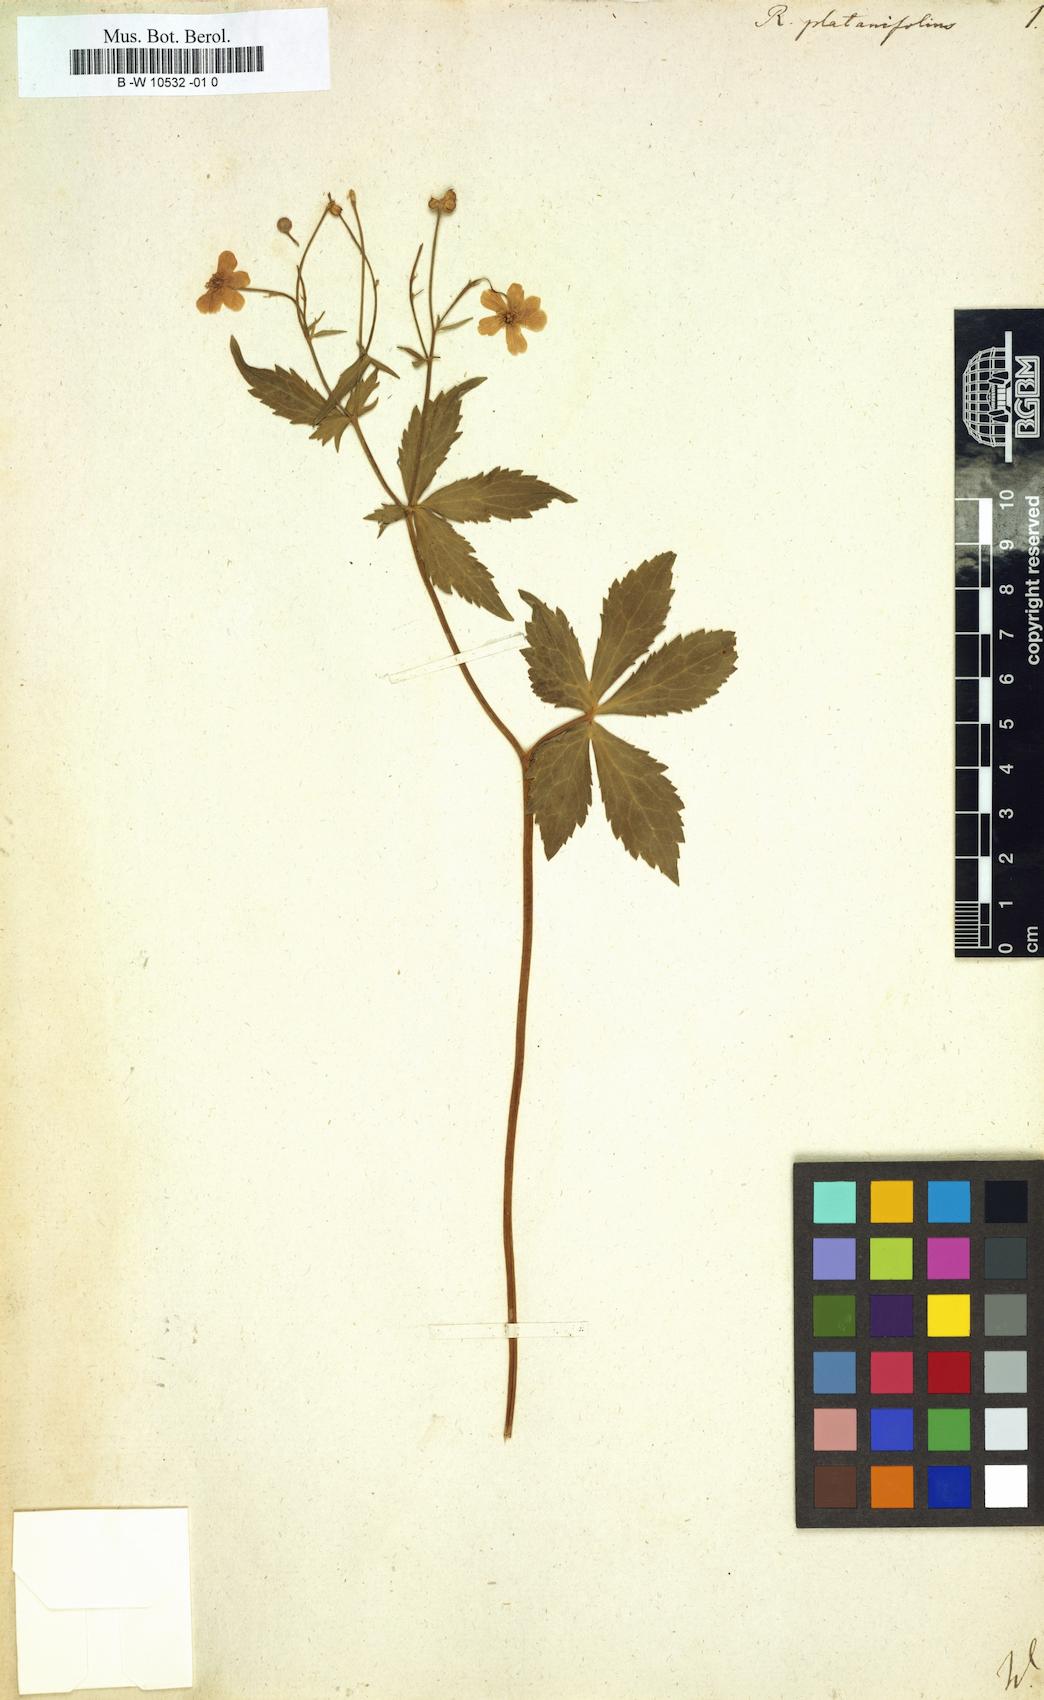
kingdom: Plantae
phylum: Tracheophyta
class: Magnoliopsida
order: Ranunculales
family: Ranunculaceae
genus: Ranunculus
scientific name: Ranunculus platanifolius
